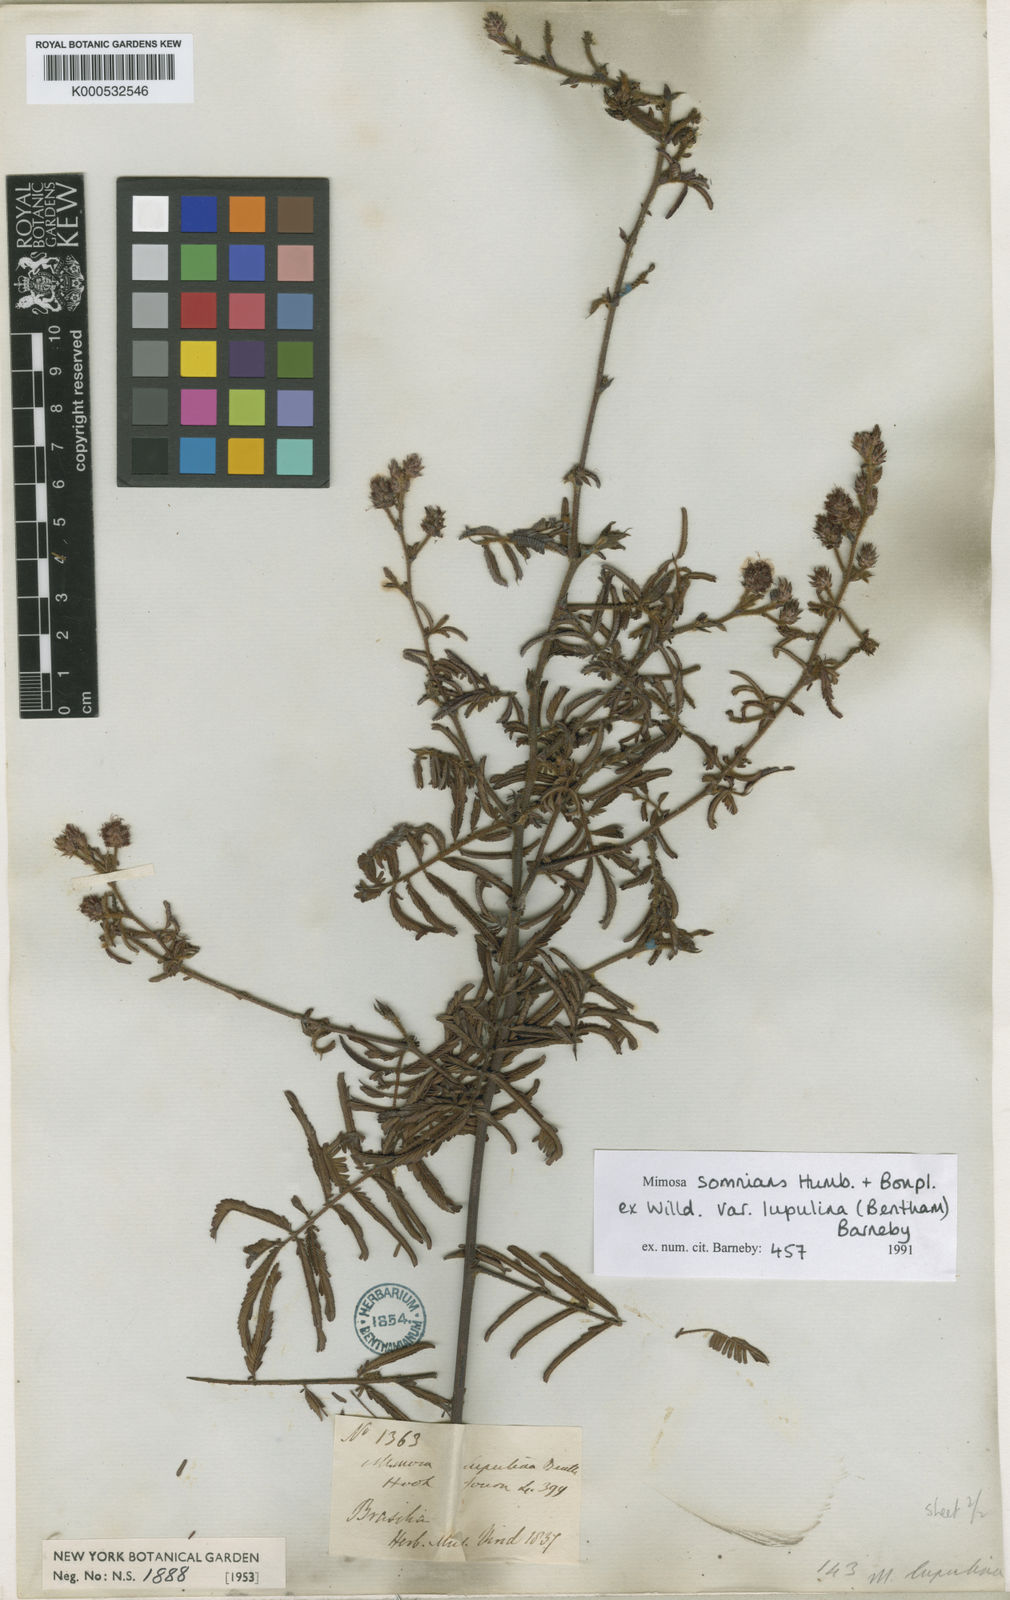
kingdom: Plantae
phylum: Tracheophyta
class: Magnoliopsida
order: Fabales
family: Fabaceae
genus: Mimosa
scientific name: Mimosa somnians
